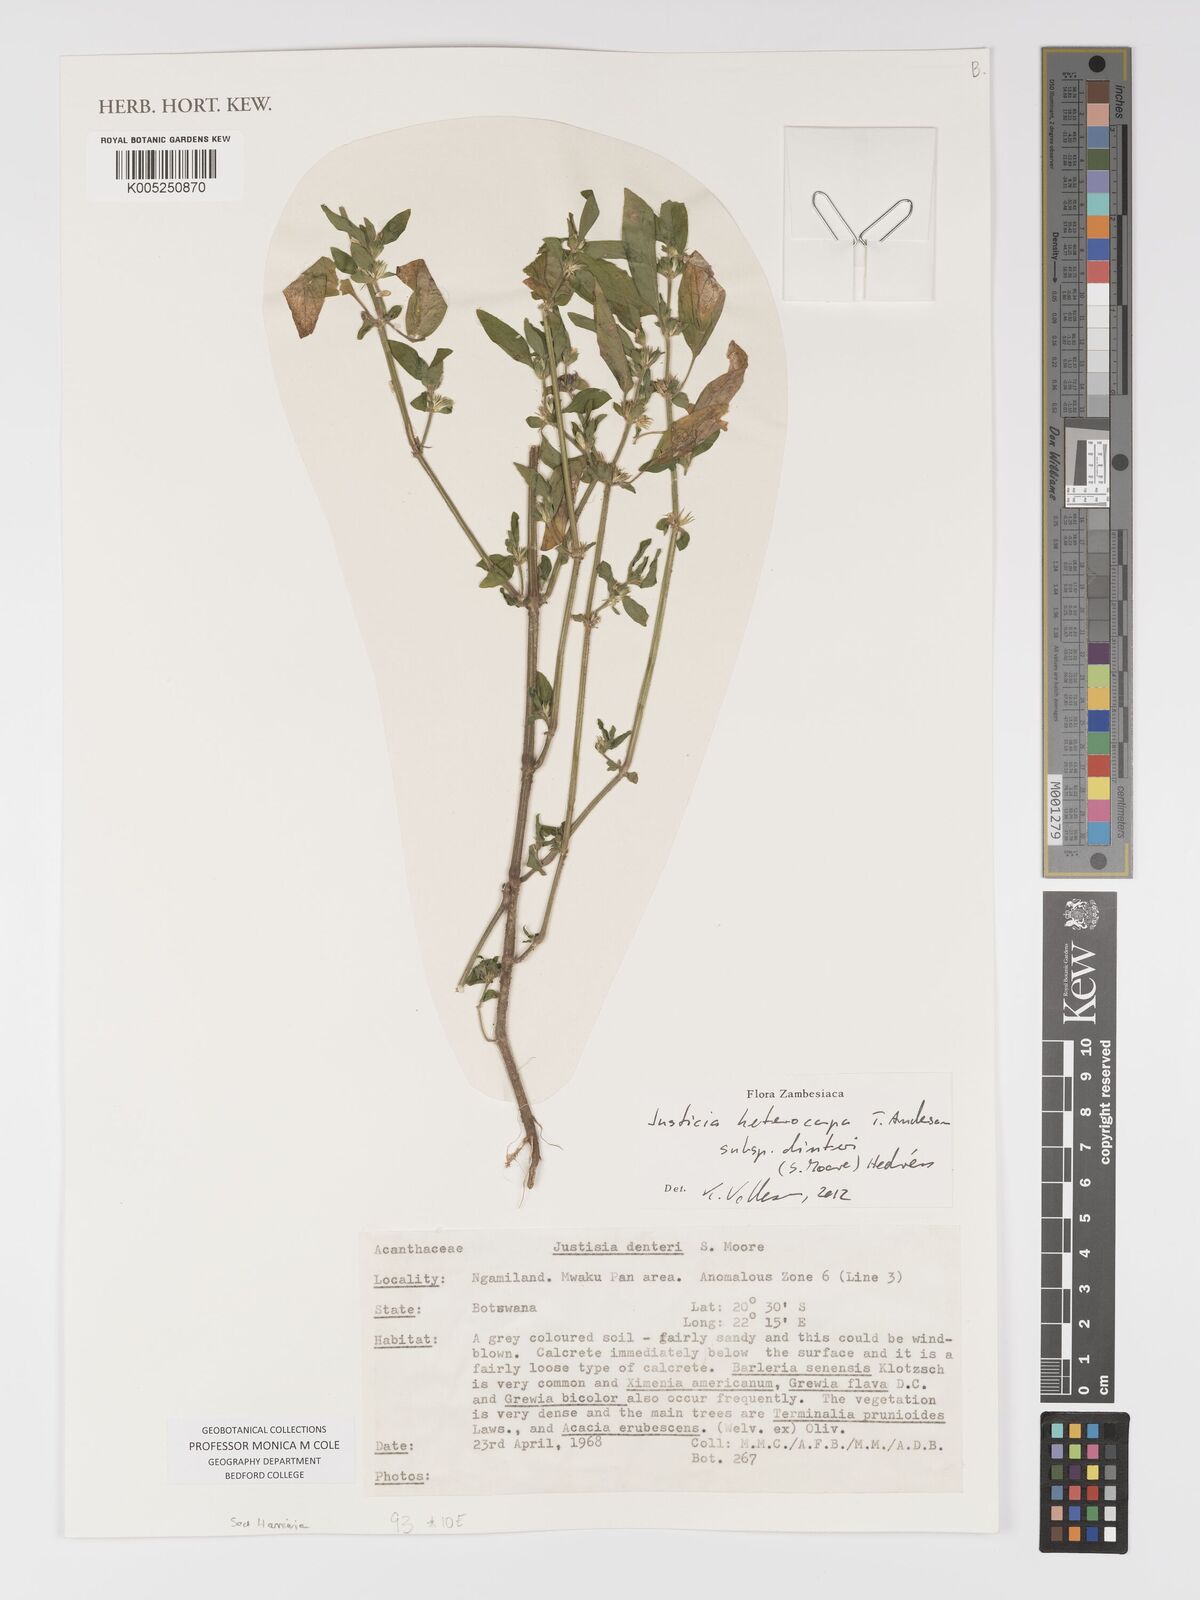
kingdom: Plantae
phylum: Tracheophyta
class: Magnoliopsida
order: Lamiales
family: Acanthaceae
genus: Justicia
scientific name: Justicia heterocarpa
